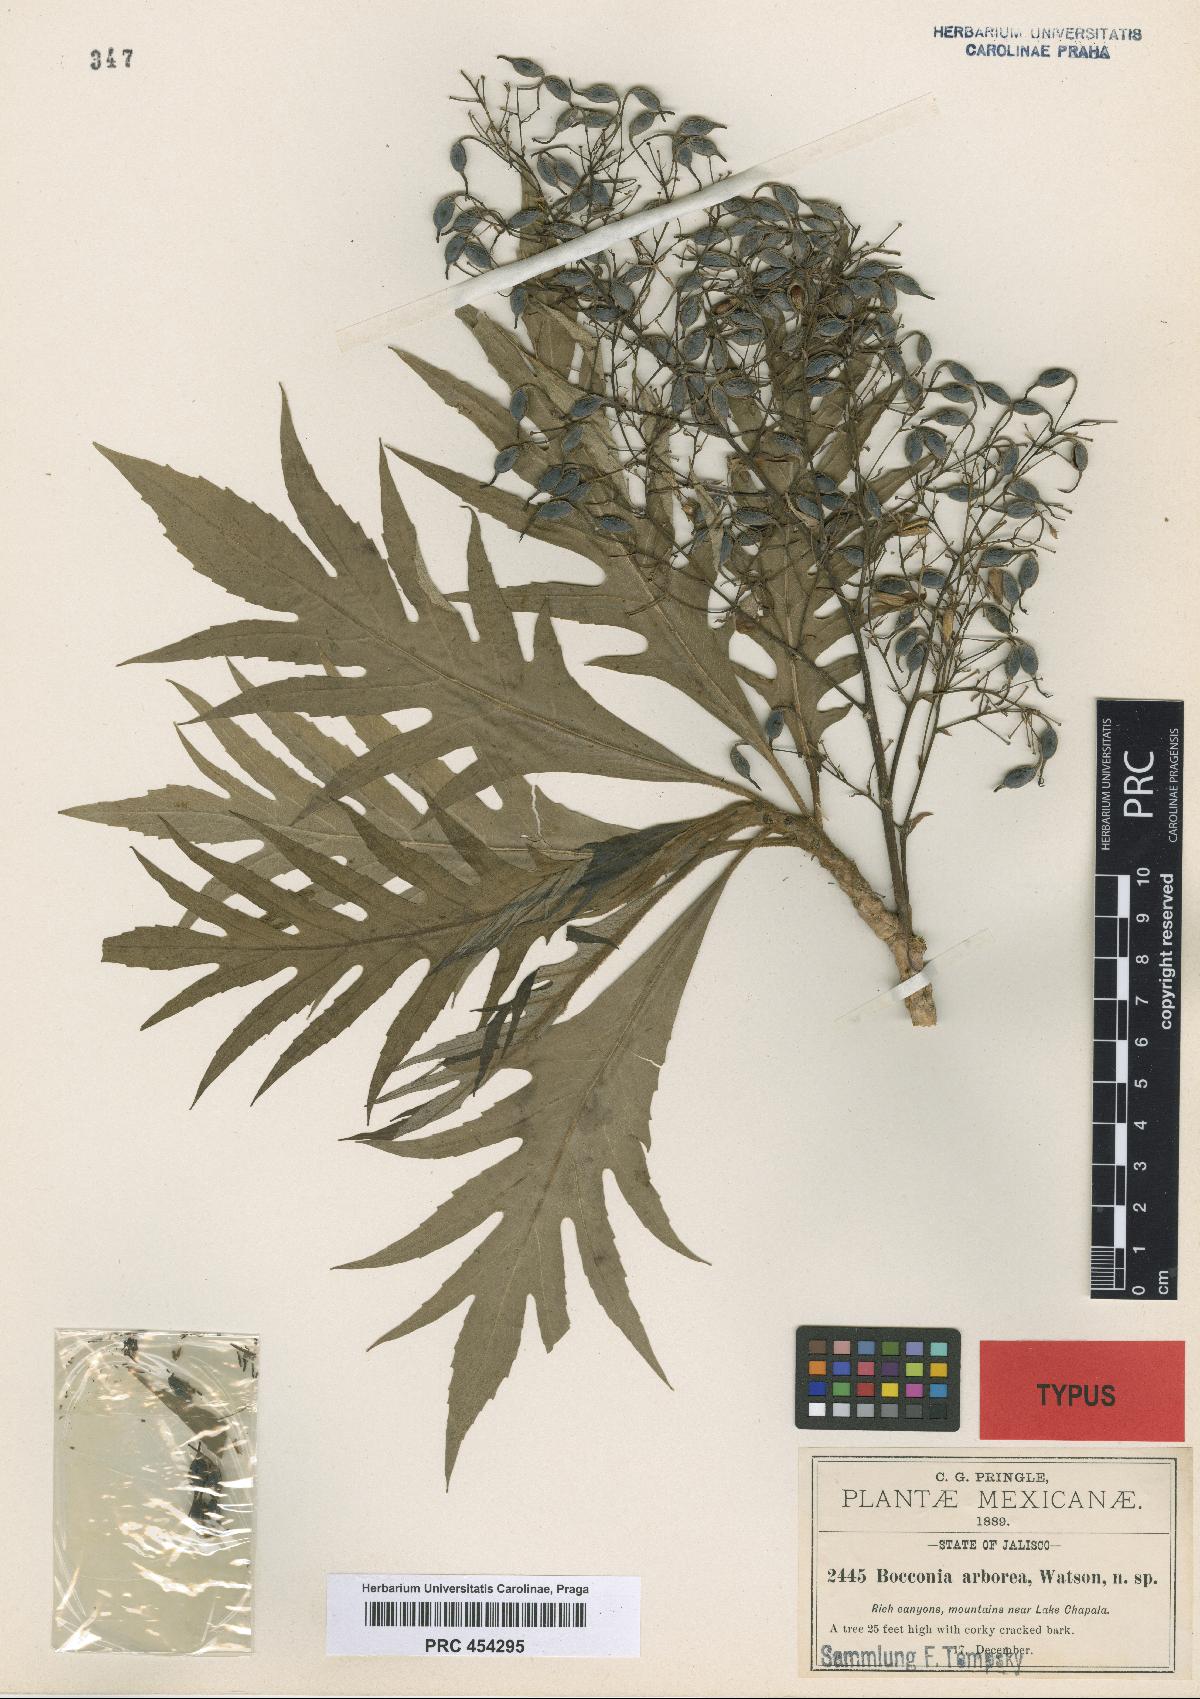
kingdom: Plantae
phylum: Tracheophyta
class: Magnoliopsida
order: Ranunculales
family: Papaveraceae
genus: Bocconia
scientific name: Bocconia arborea
